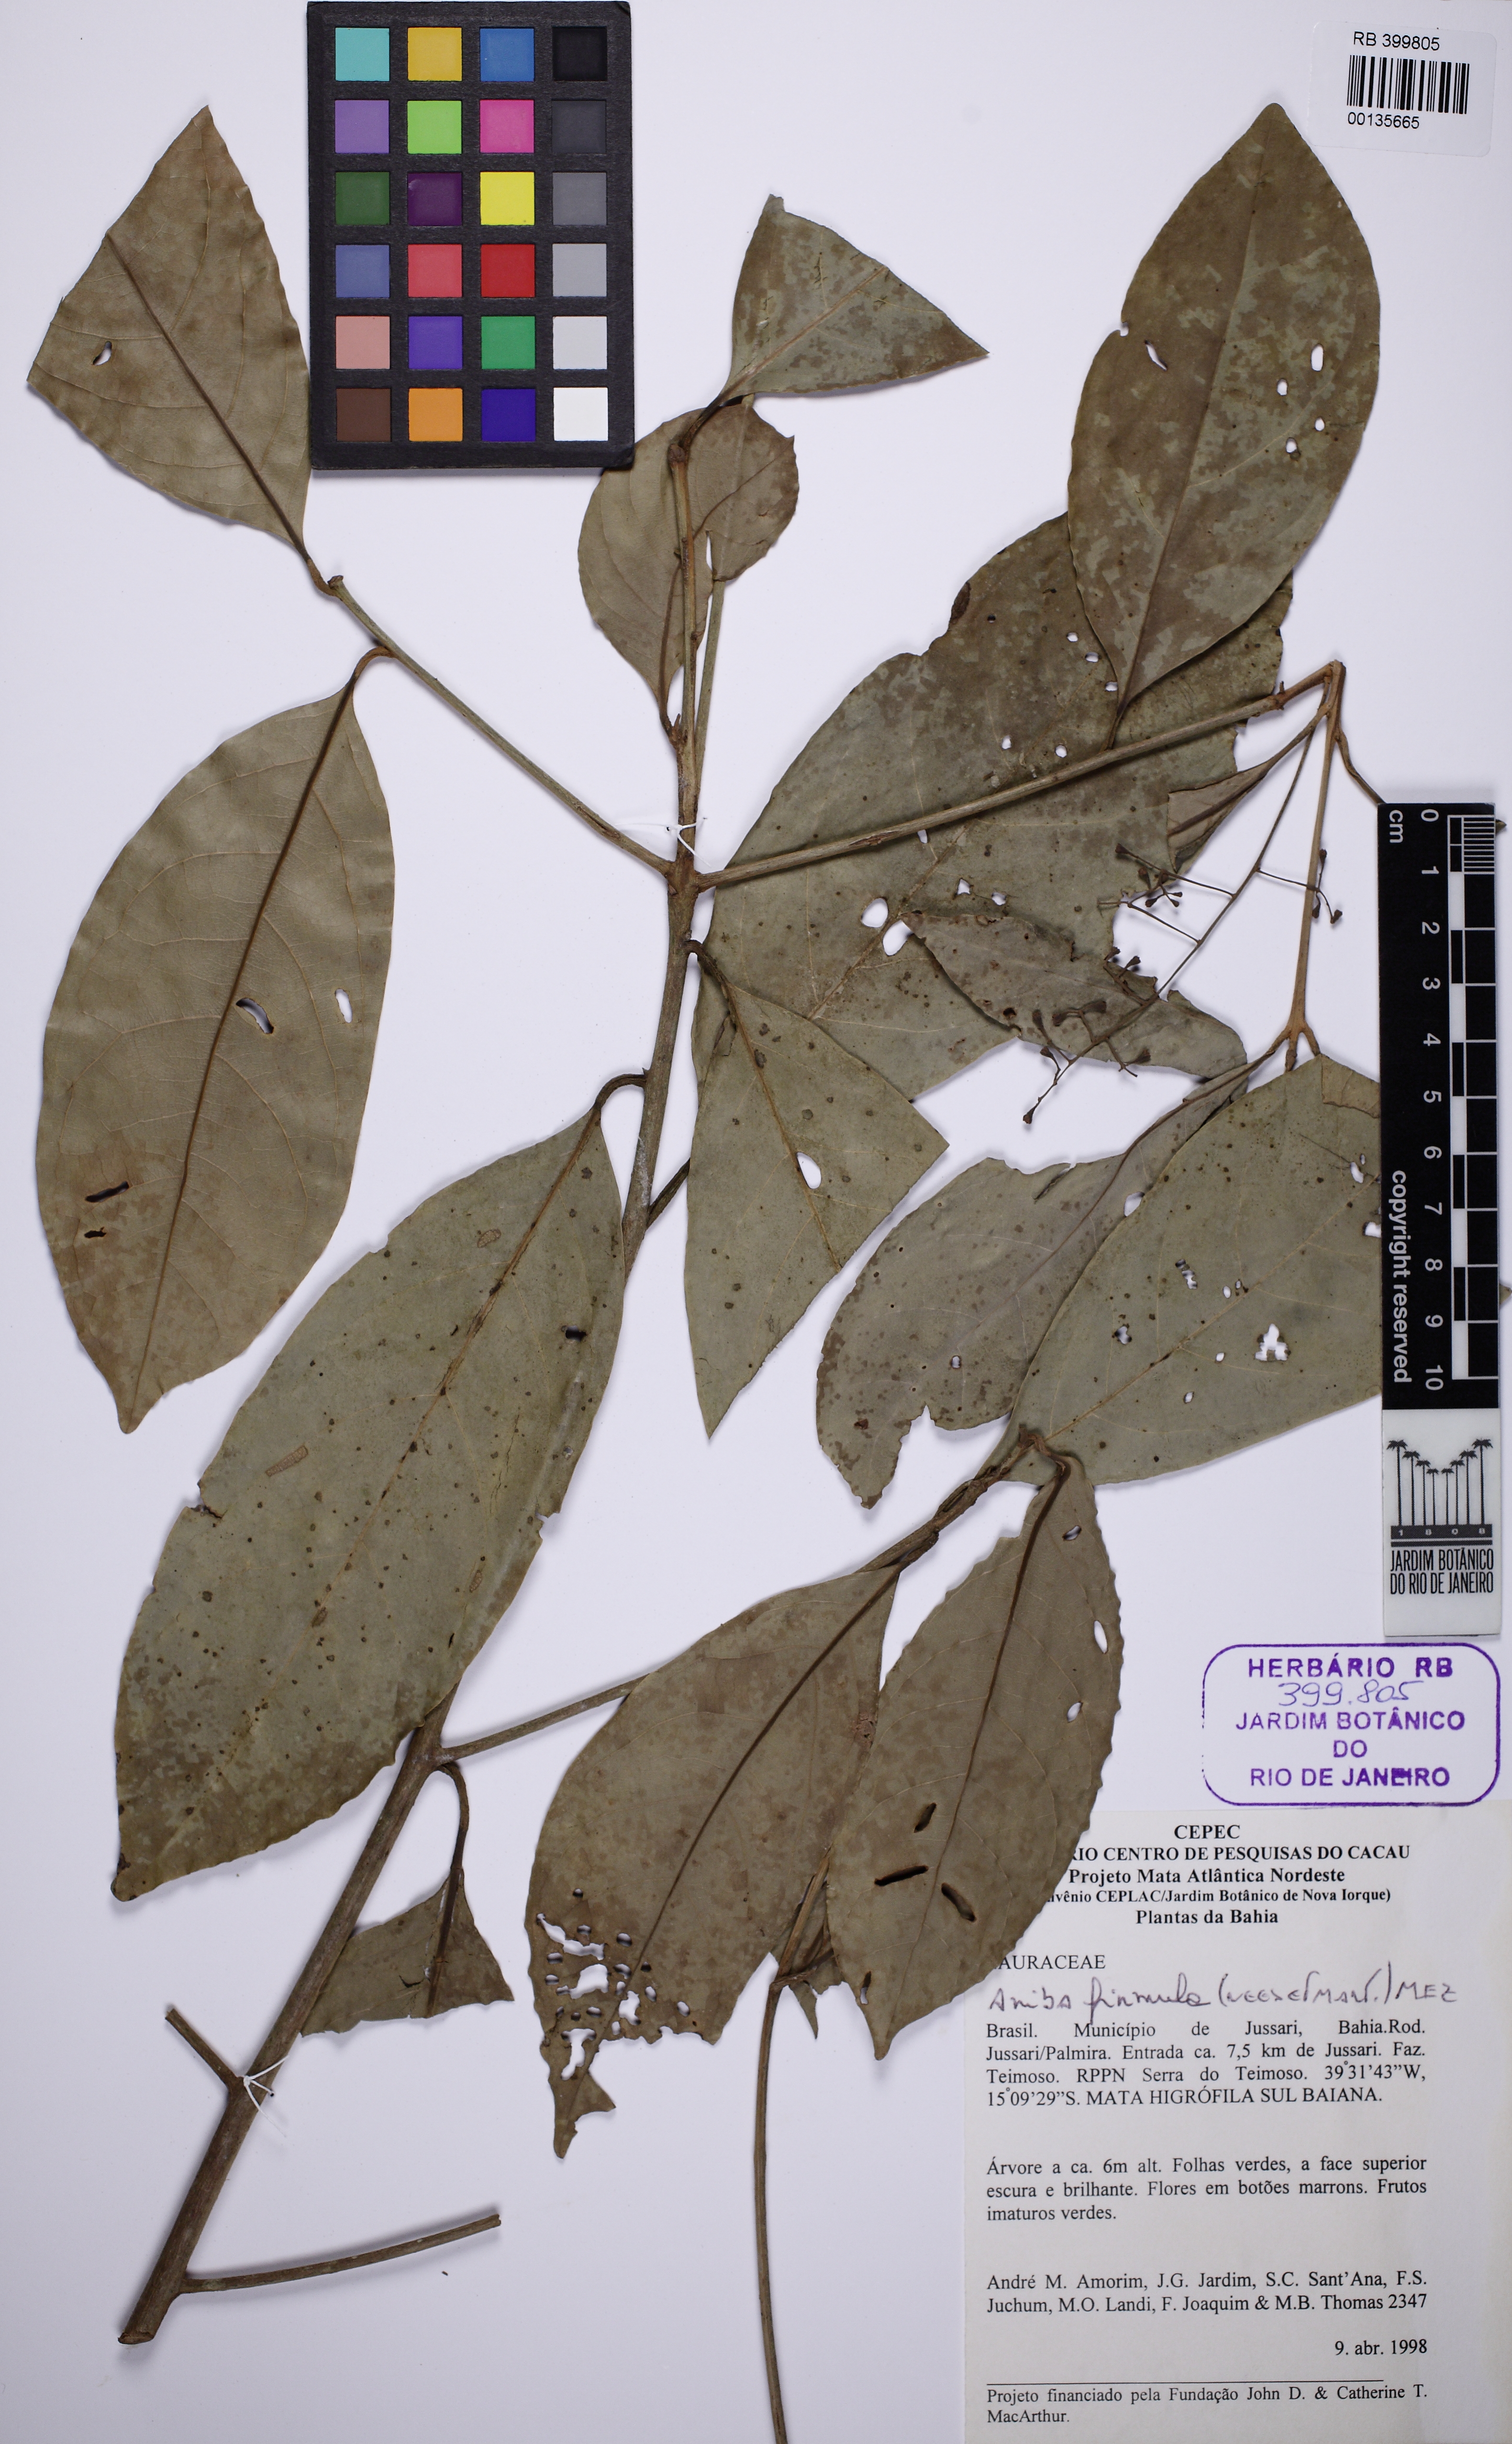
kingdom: Plantae
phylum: Tracheophyta
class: Magnoliopsida
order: Laurales
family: Lauraceae
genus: Aniba
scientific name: Aniba firmula
